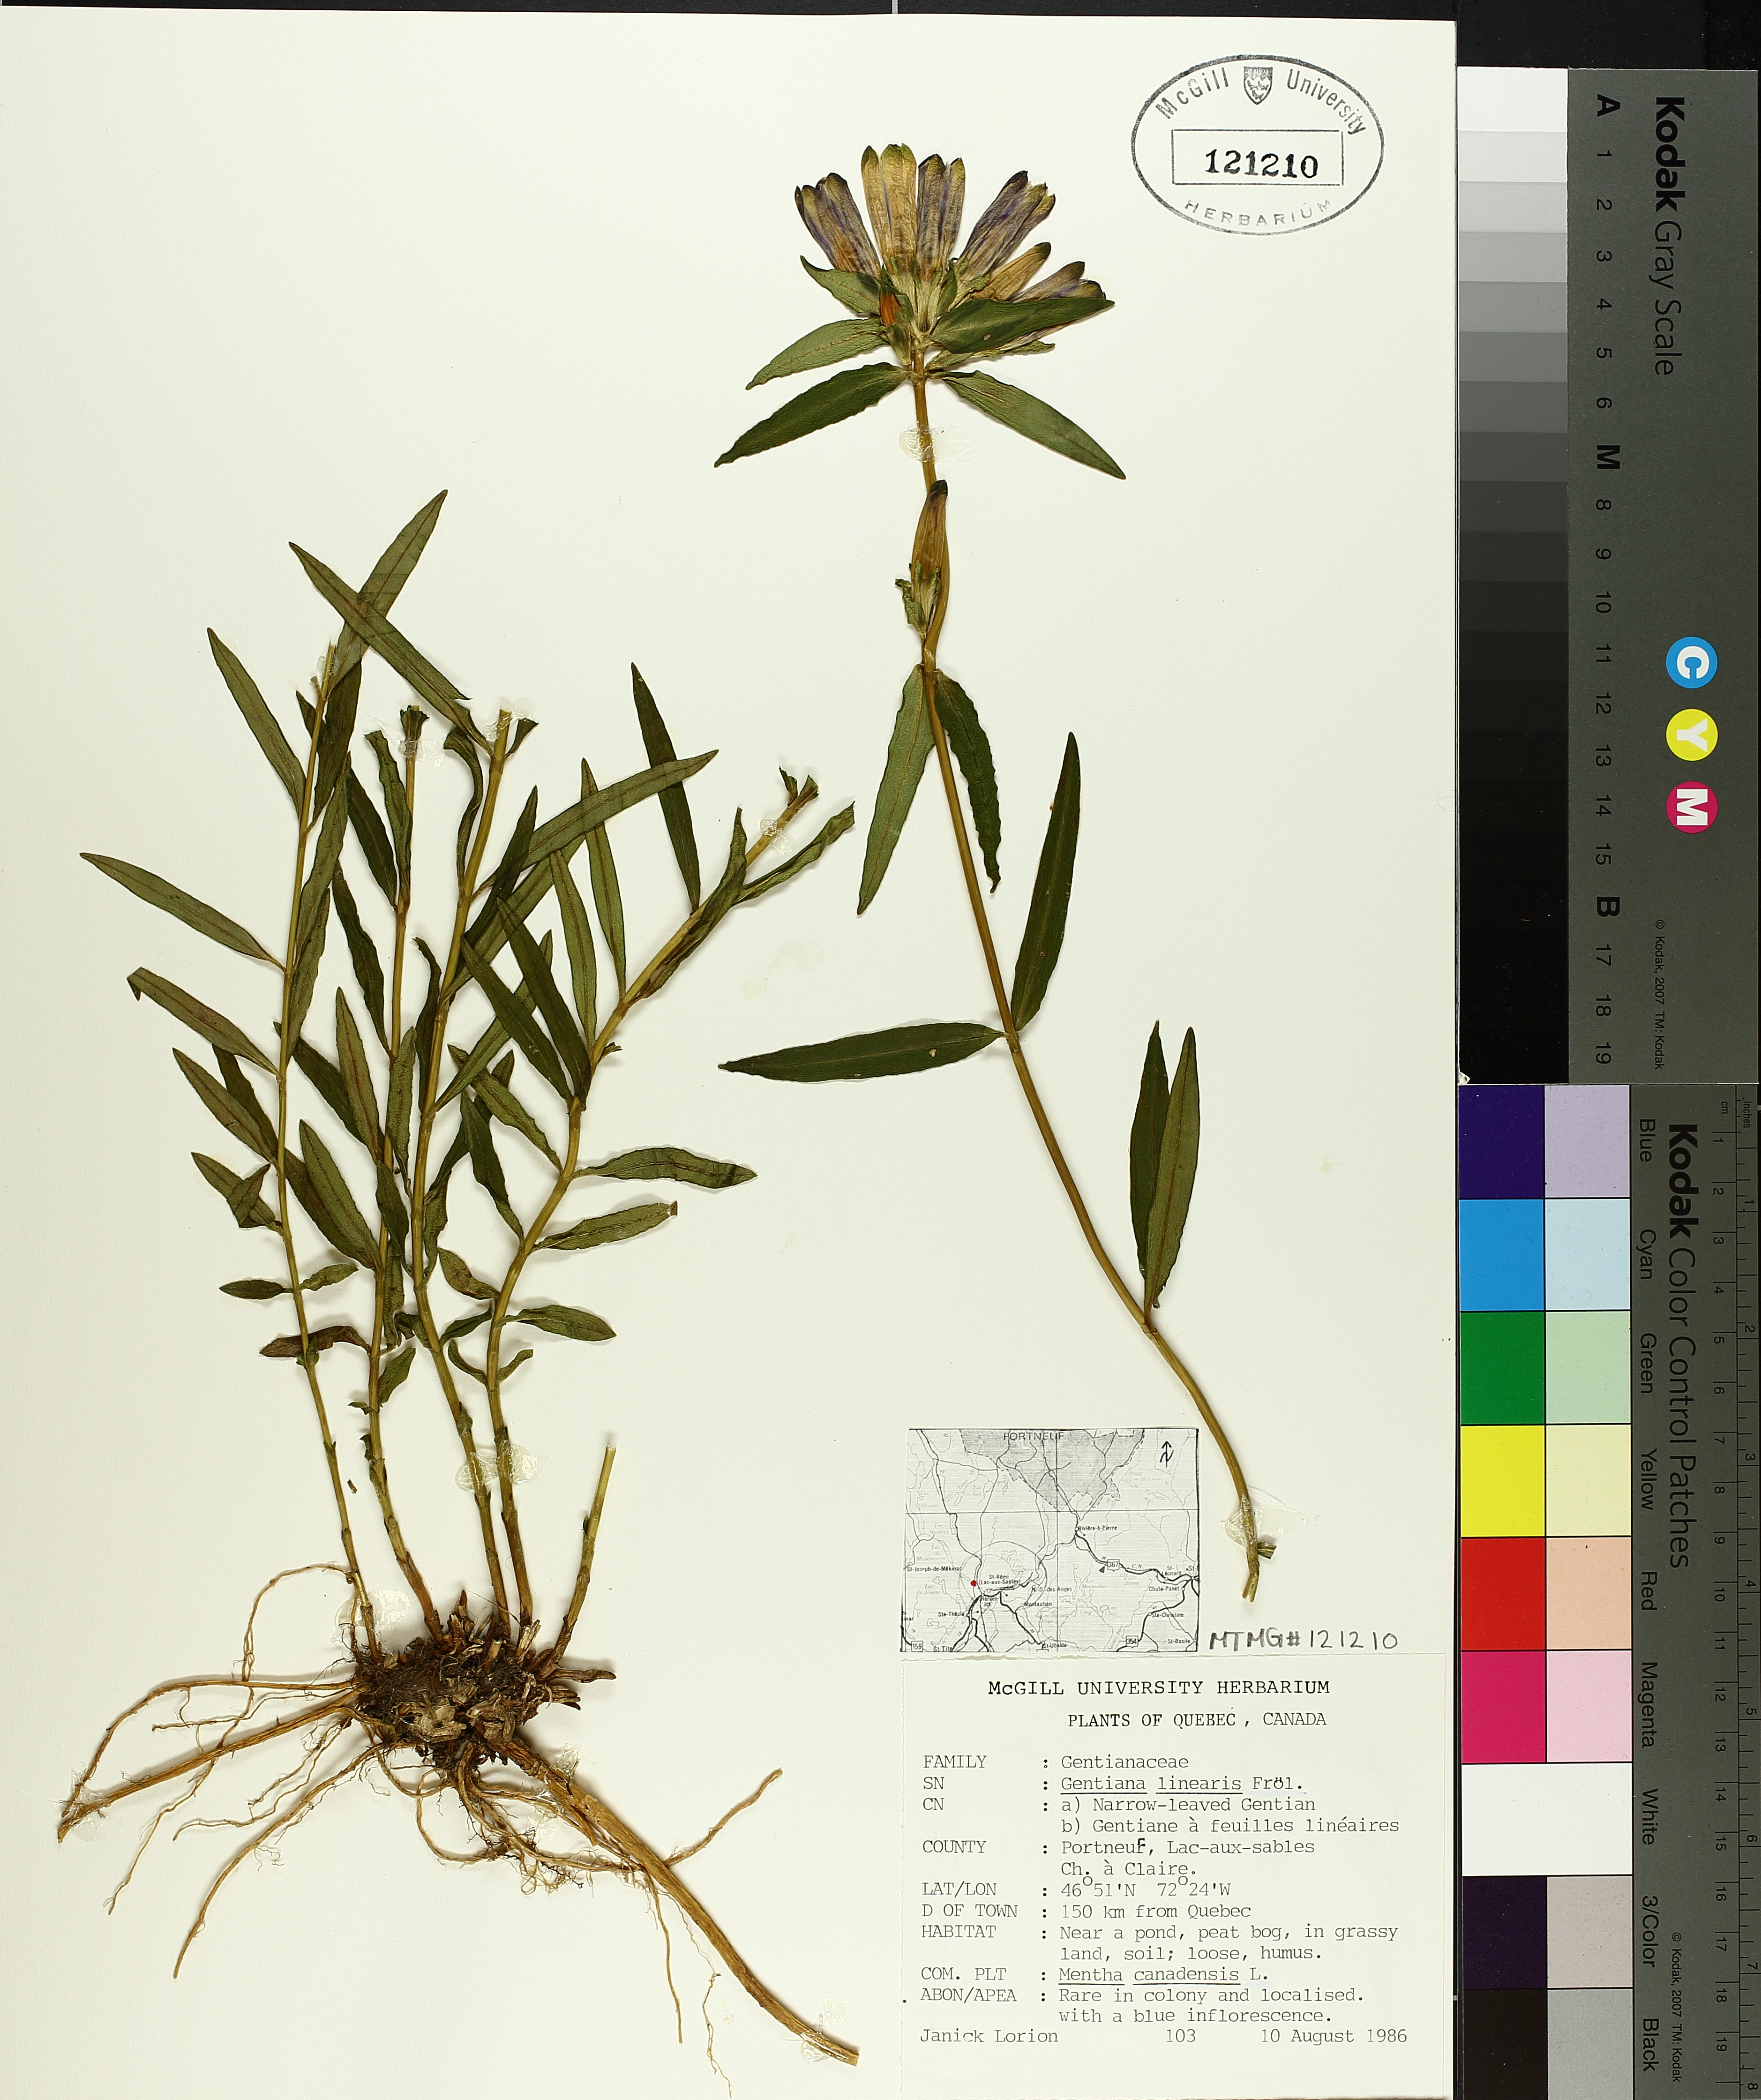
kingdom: Plantae
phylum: Tracheophyta
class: Magnoliopsida
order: Gentianales
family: Gentianaceae
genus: Gentiana
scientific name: Gentiana linearis
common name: Bastard gentian
